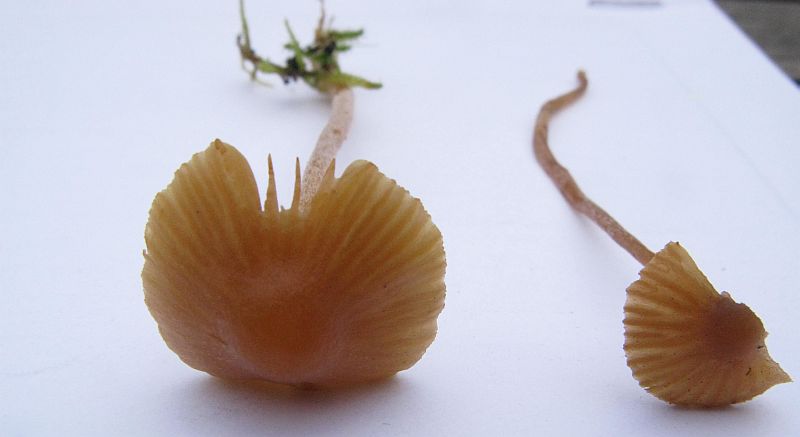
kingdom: Fungi
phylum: Basidiomycota
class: Agaricomycetes
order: Agaricales
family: Hymenogastraceae
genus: Galerina
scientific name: Galerina clavata
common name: kær-hjelmhat
